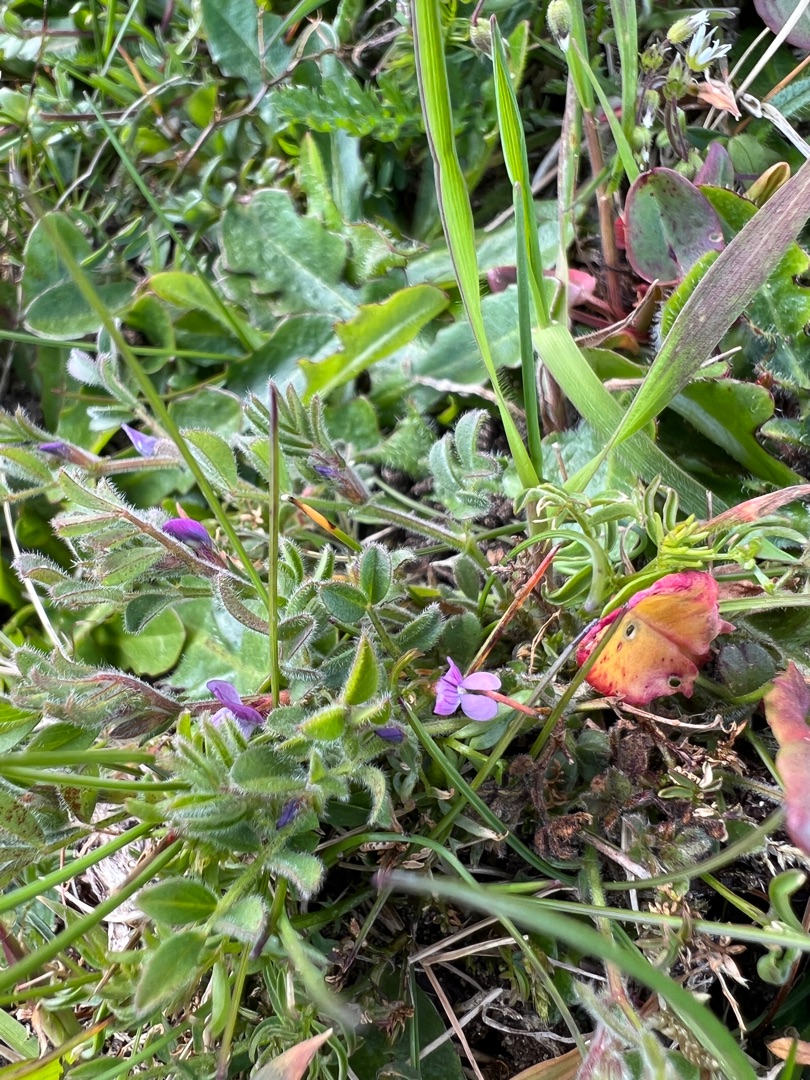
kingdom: Plantae
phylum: Tracheophyta
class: Magnoliopsida
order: Fabales
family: Fabaceae
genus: Vicia
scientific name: Vicia lathyroides
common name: Vår-vikke
